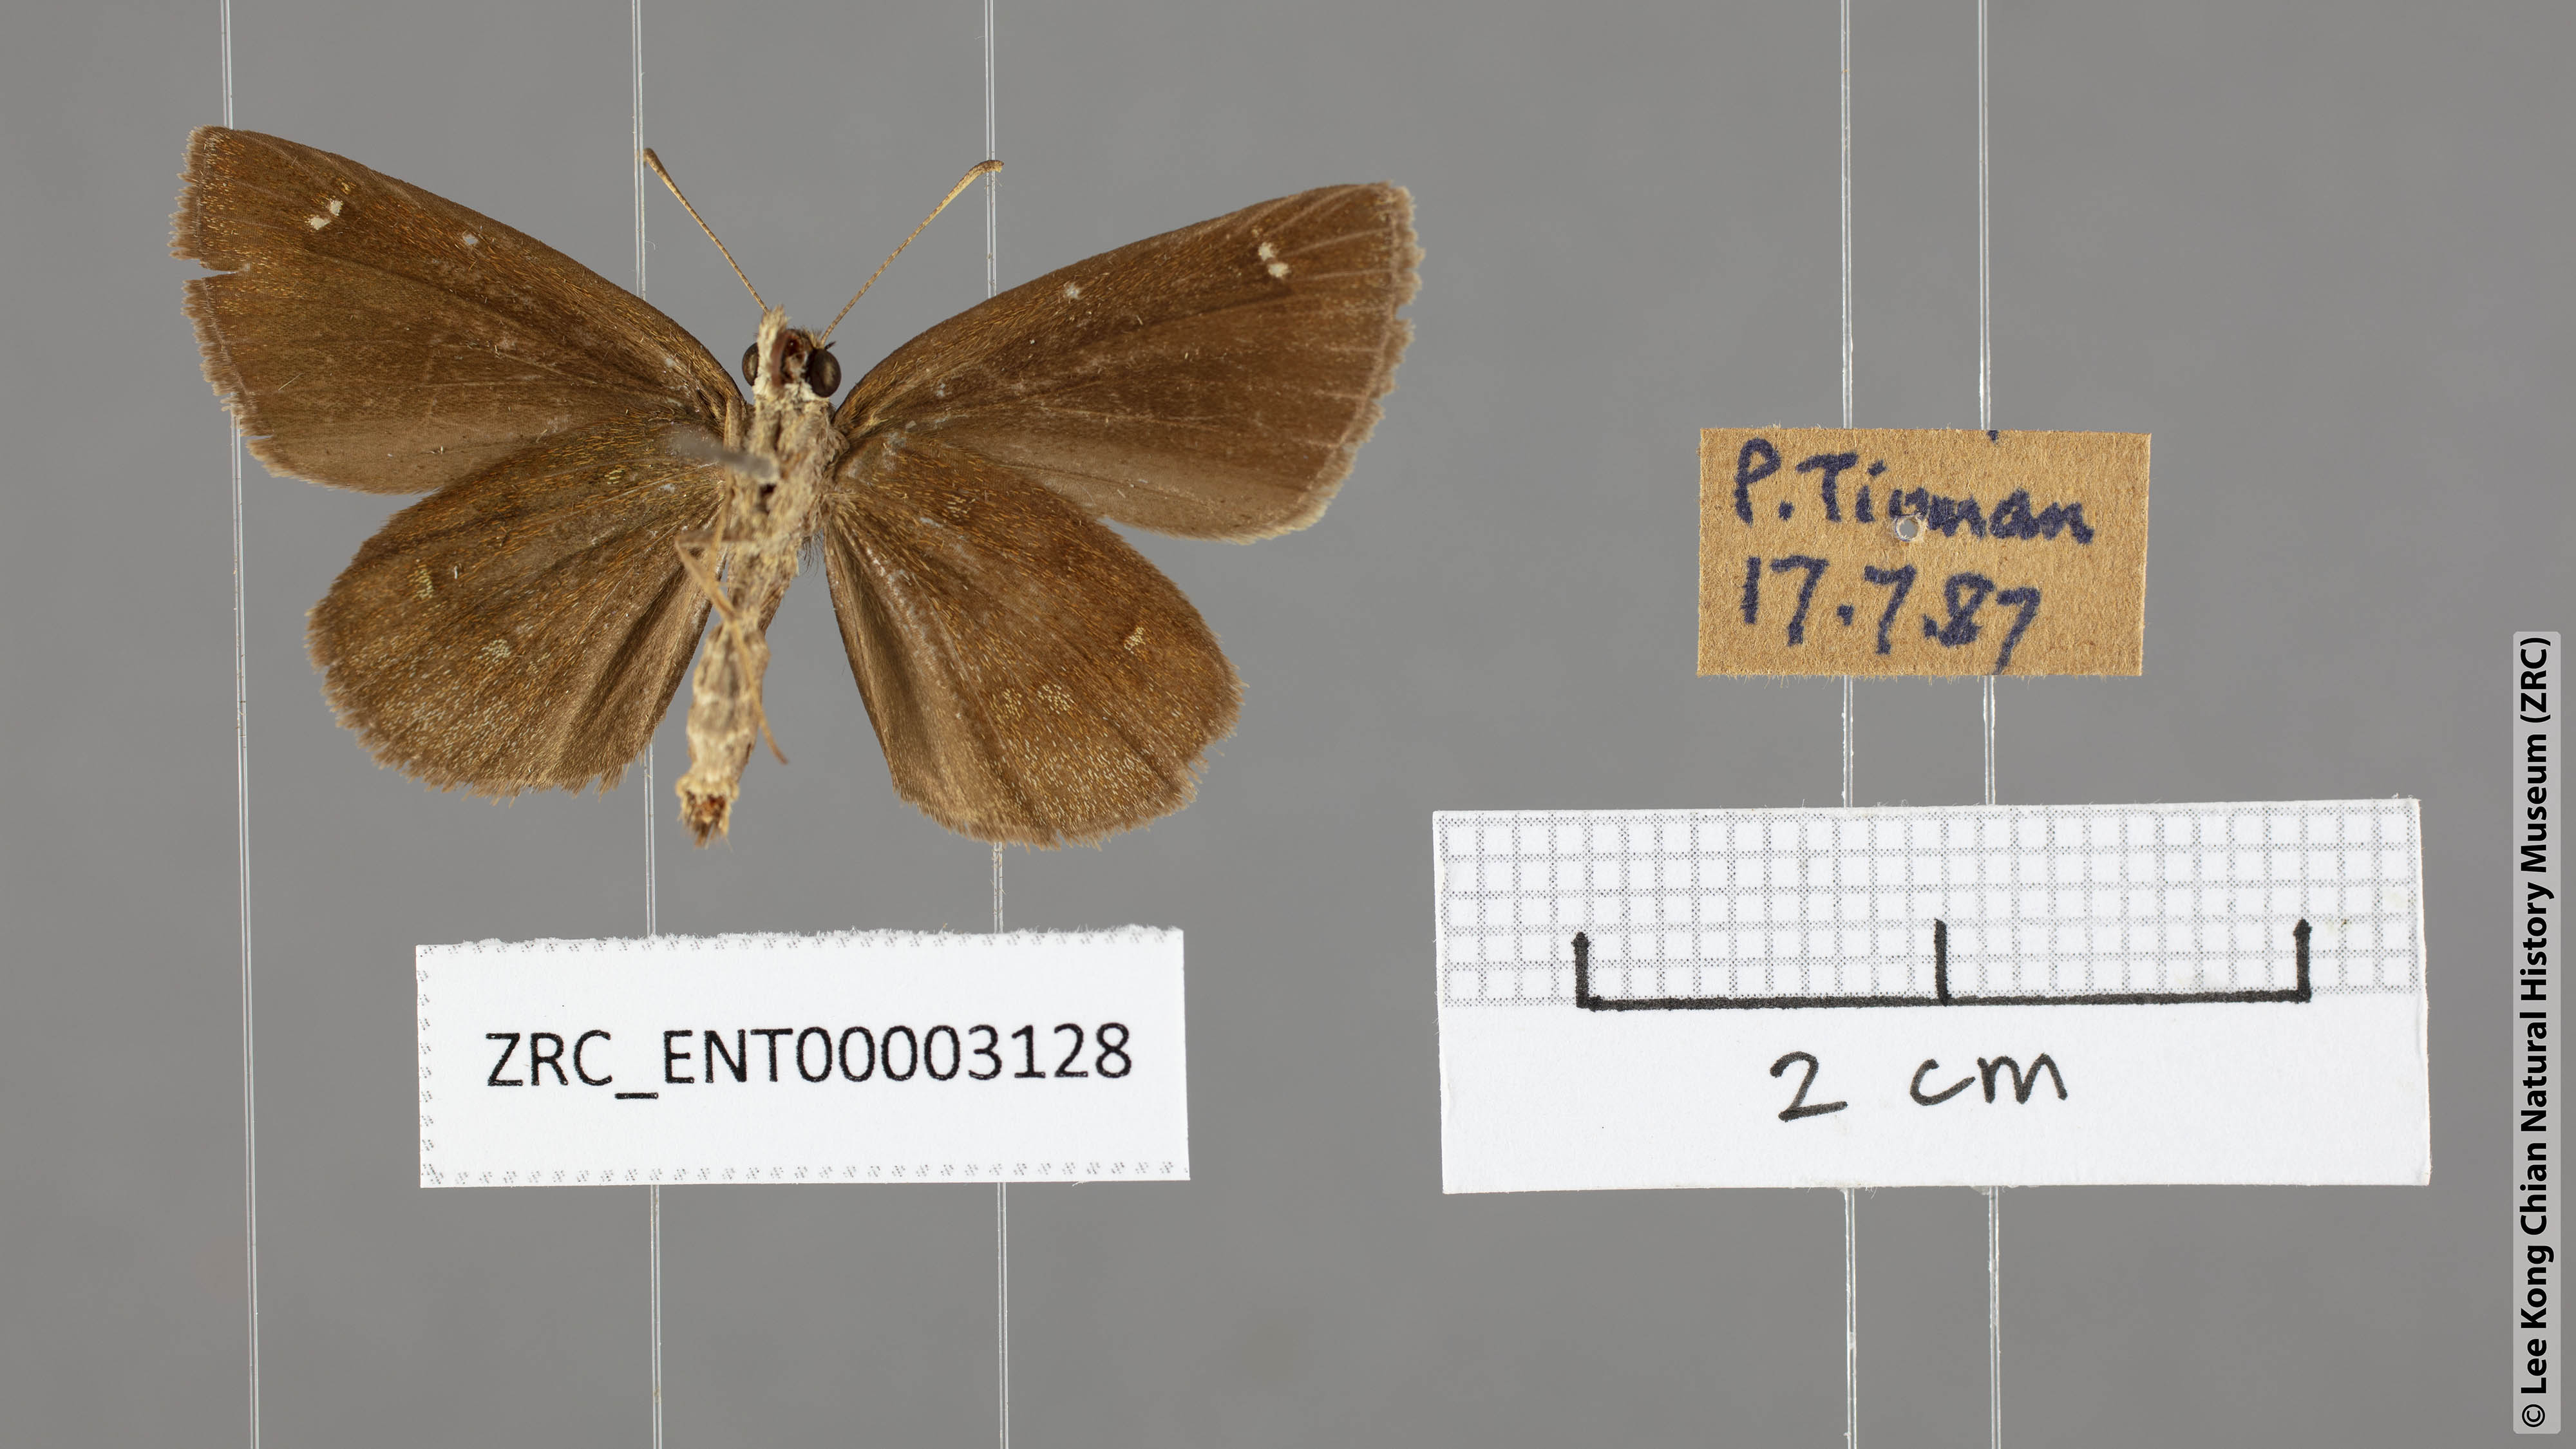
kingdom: Animalia
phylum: Arthropoda
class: Insecta
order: Lepidoptera
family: Hesperiidae
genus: Astictopterus
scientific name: Astictopterus jama
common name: Forest hopper
